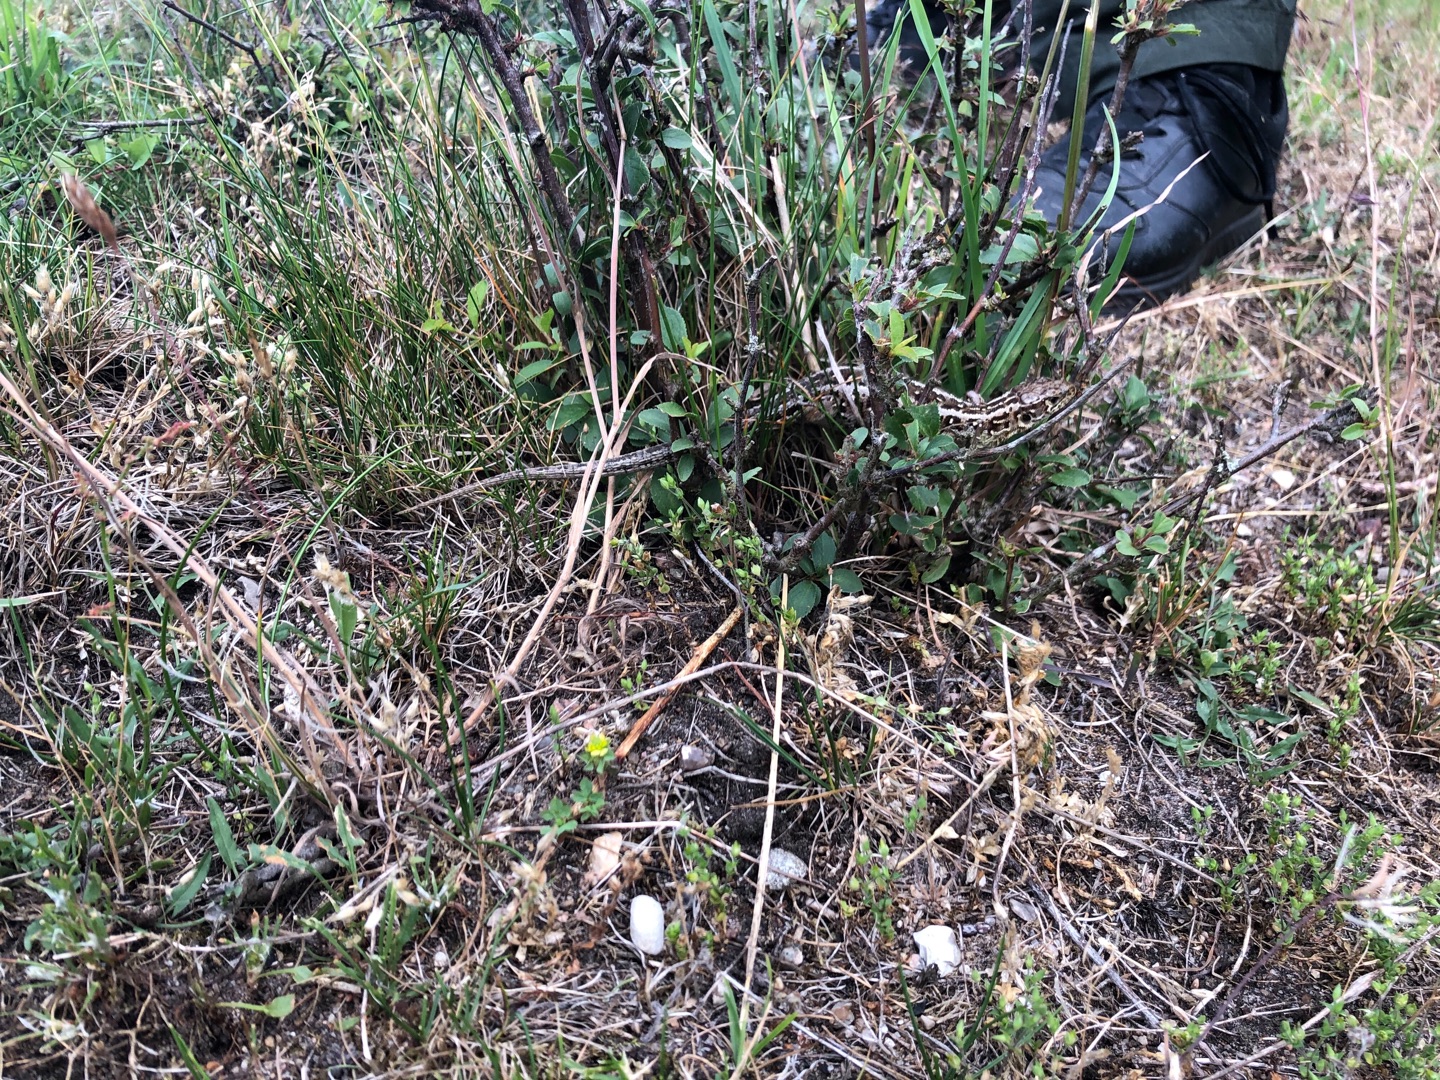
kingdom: Animalia
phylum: Chordata
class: Squamata
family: Lacertidae
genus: Lacerta
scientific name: Lacerta agilis
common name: Markfirben
